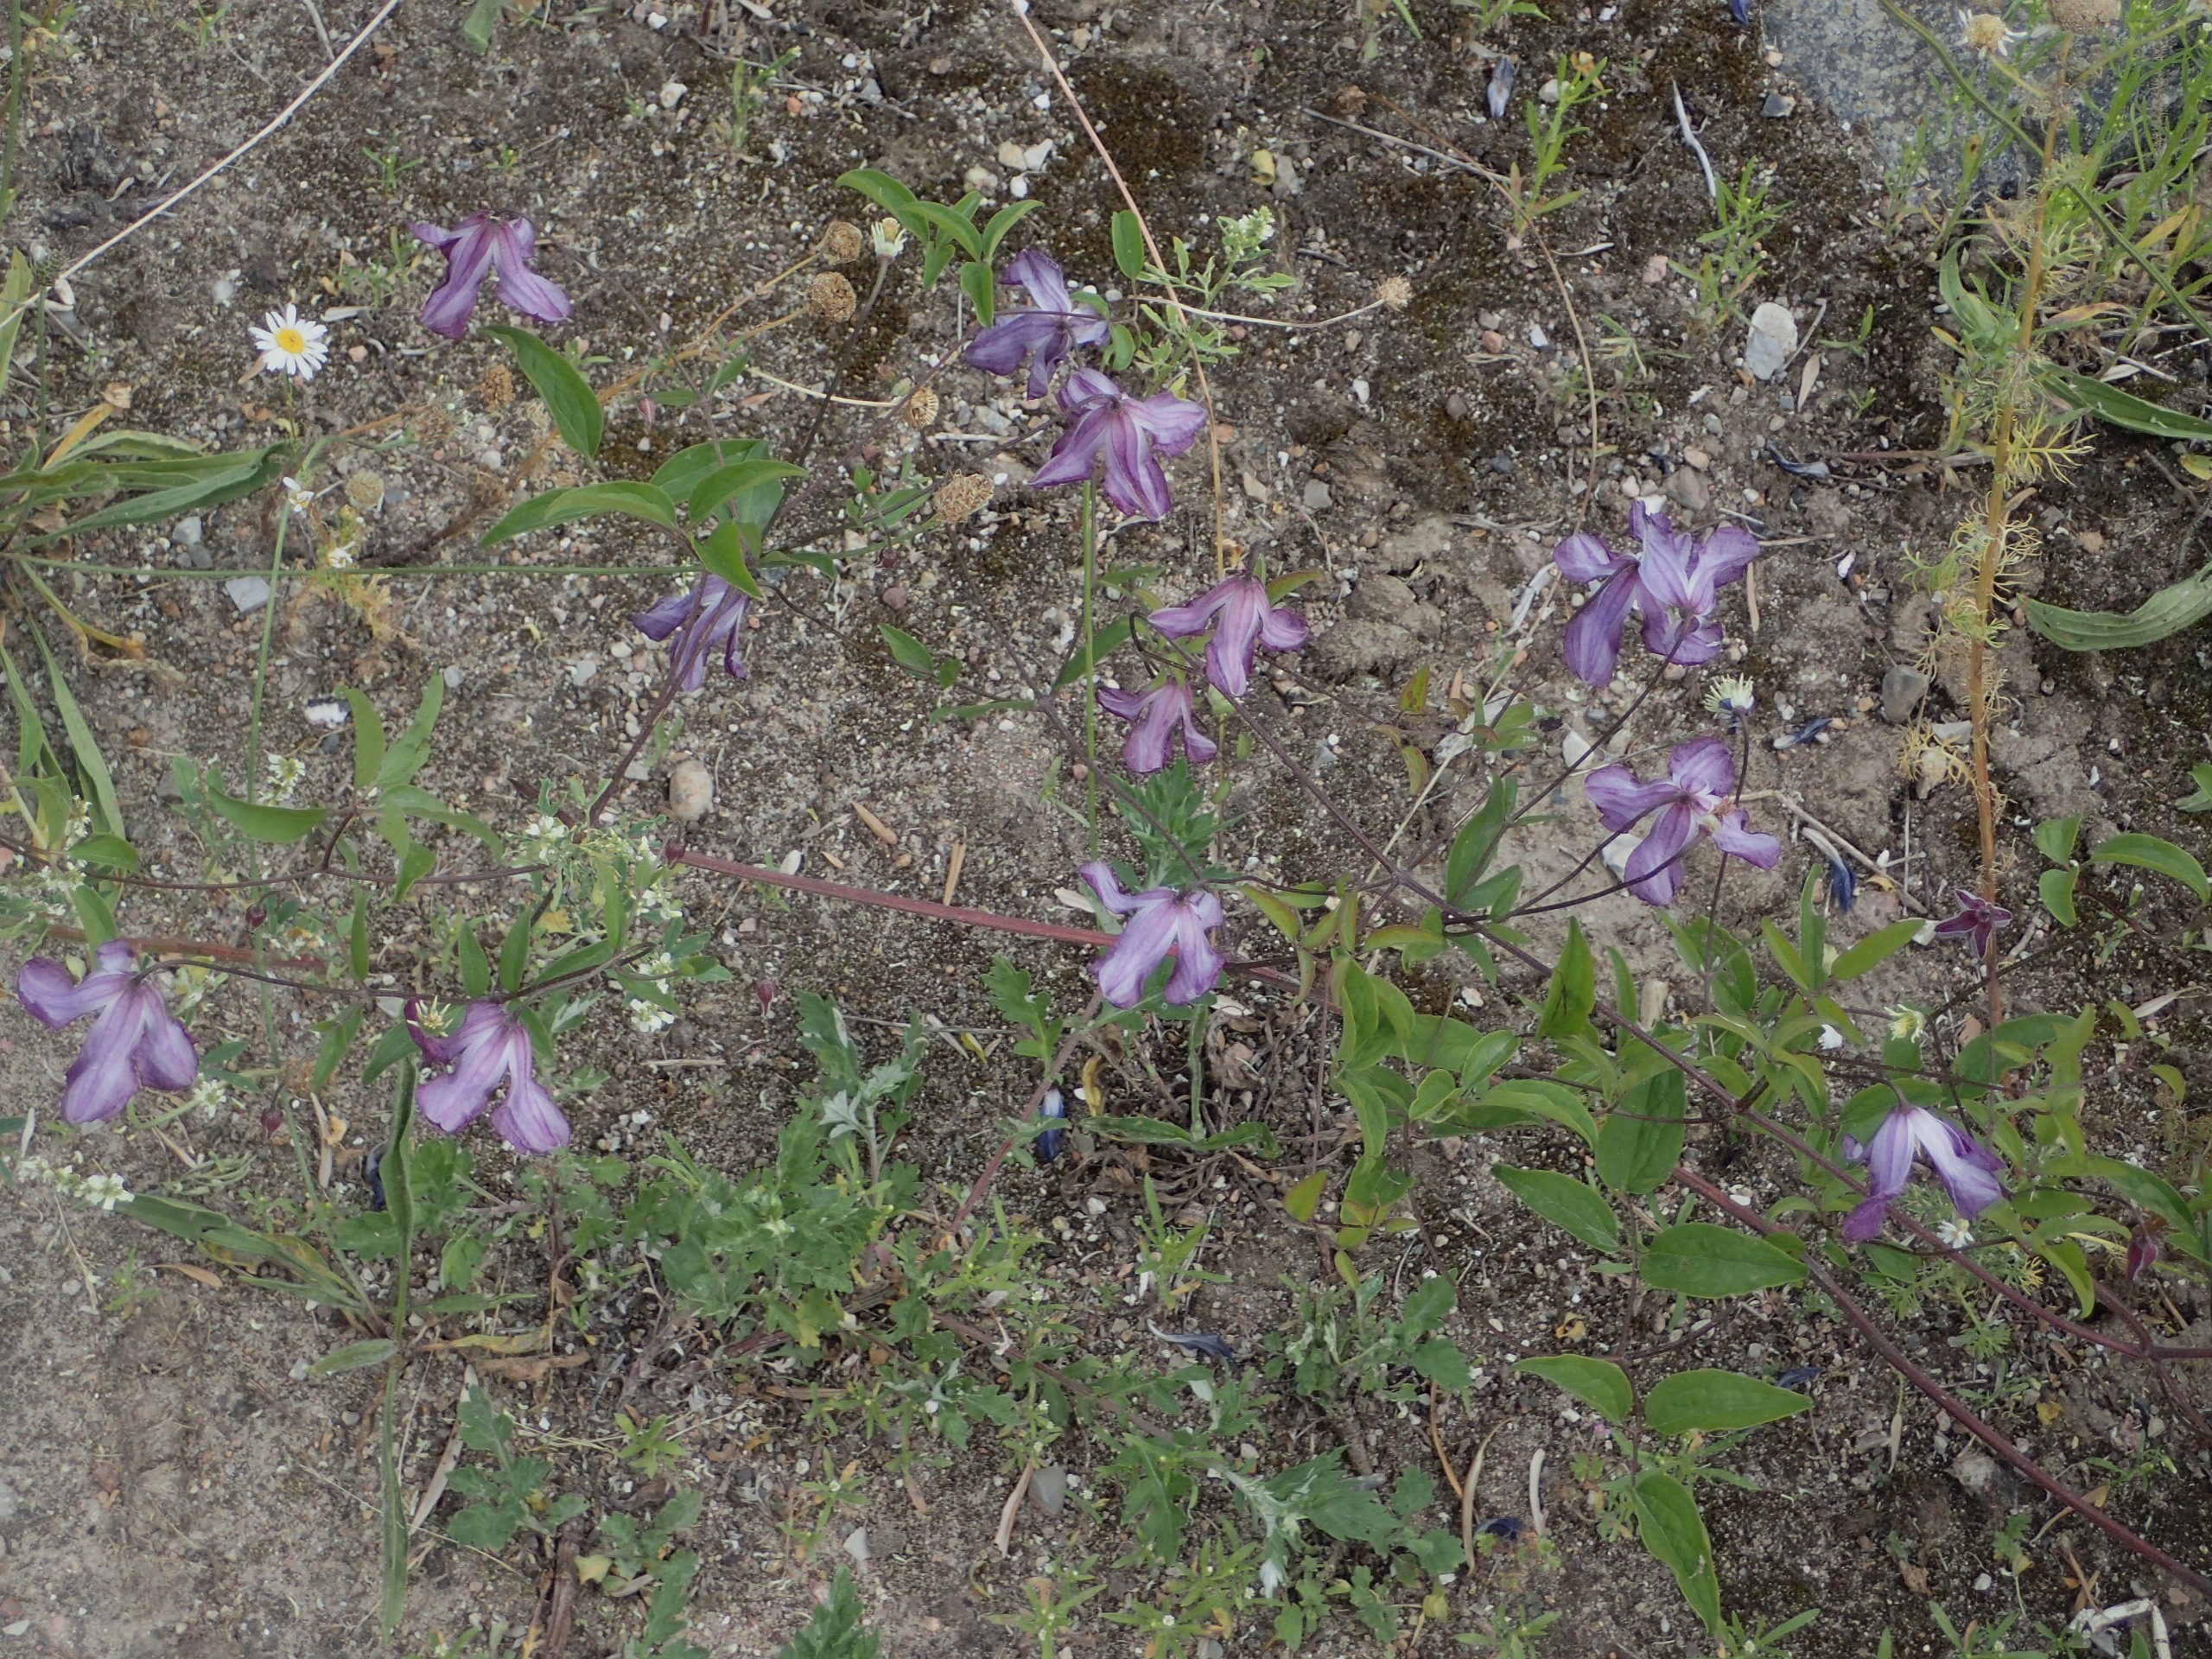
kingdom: Plantae
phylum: Tracheophyta
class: Magnoliopsida
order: Ranunculales
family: Ranunculaceae
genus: Clematis
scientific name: Clematis viticella
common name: Italiensk skovranke
